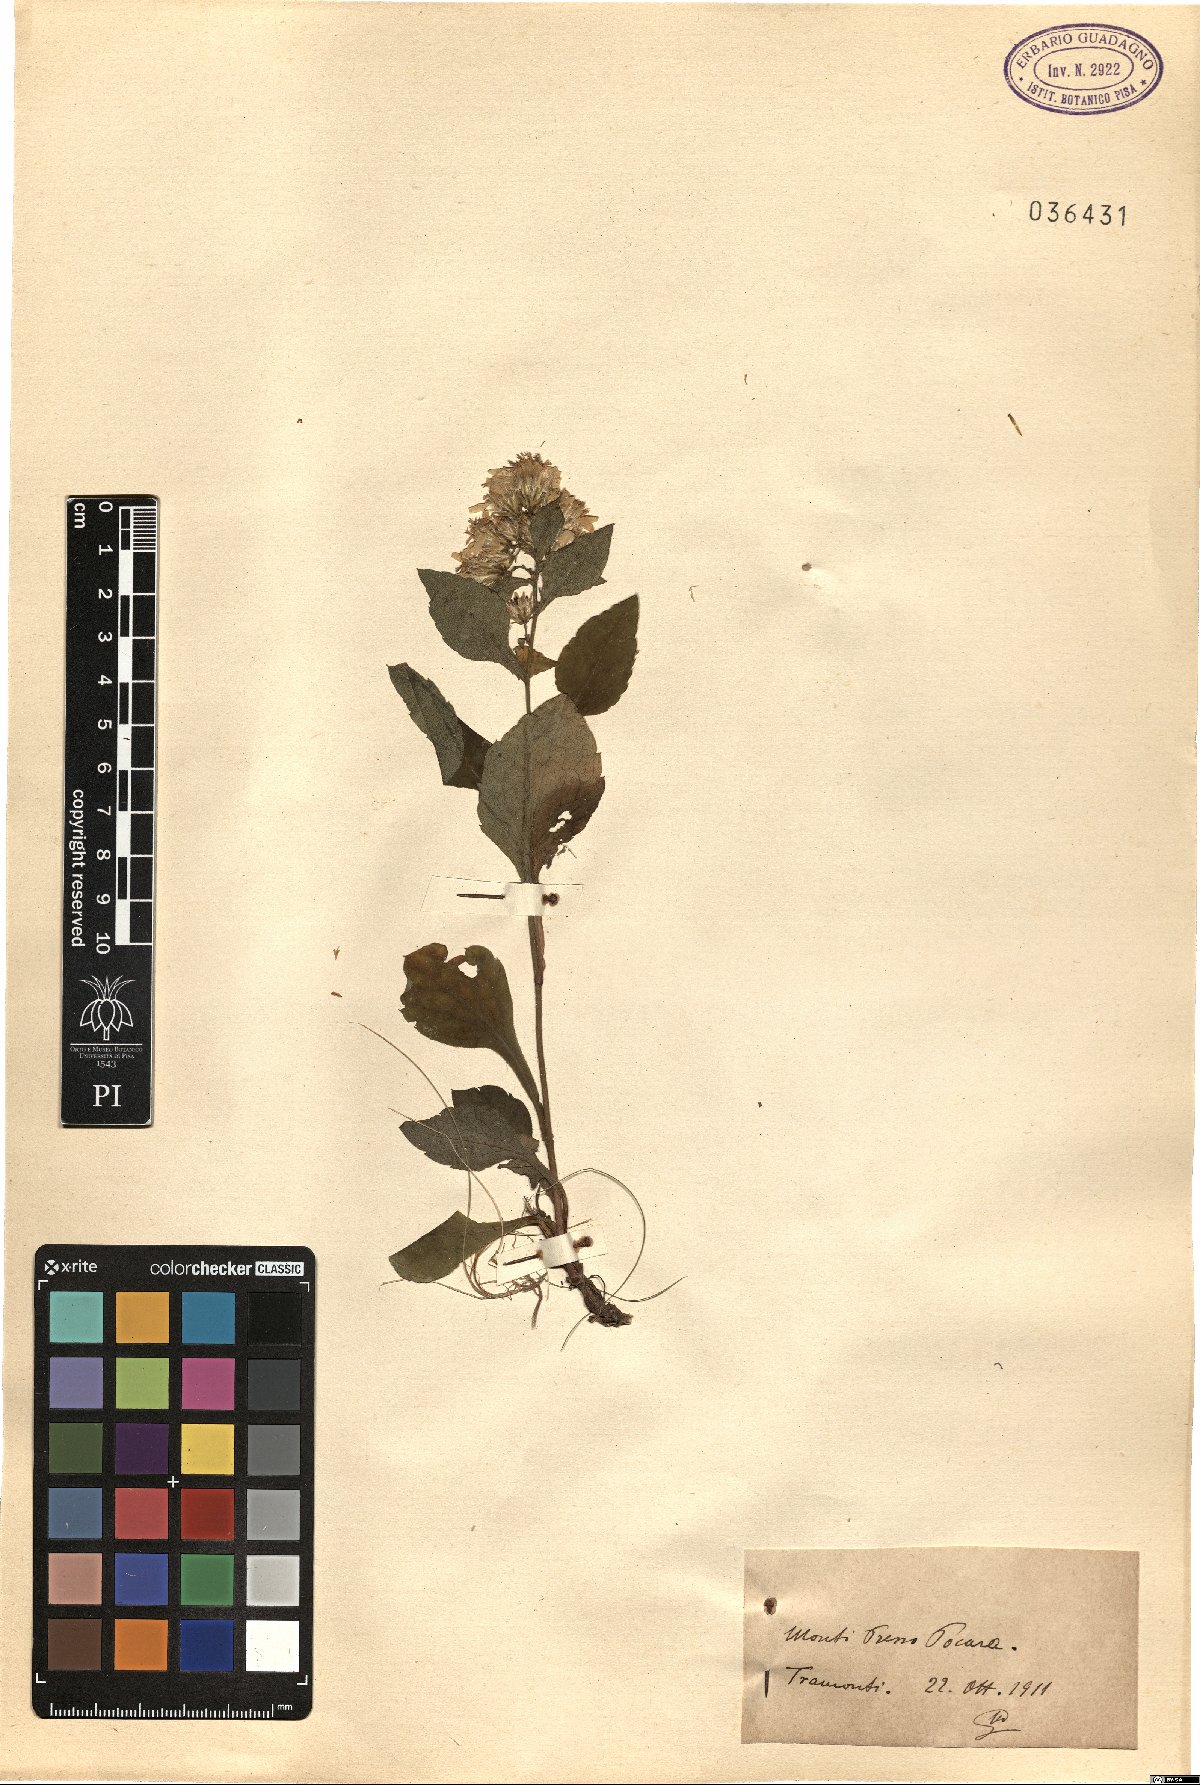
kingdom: Plantae
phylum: Tracheophyta
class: Magnoliopsida
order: Asterales
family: Asteraceae
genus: Solidago
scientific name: Solidago
